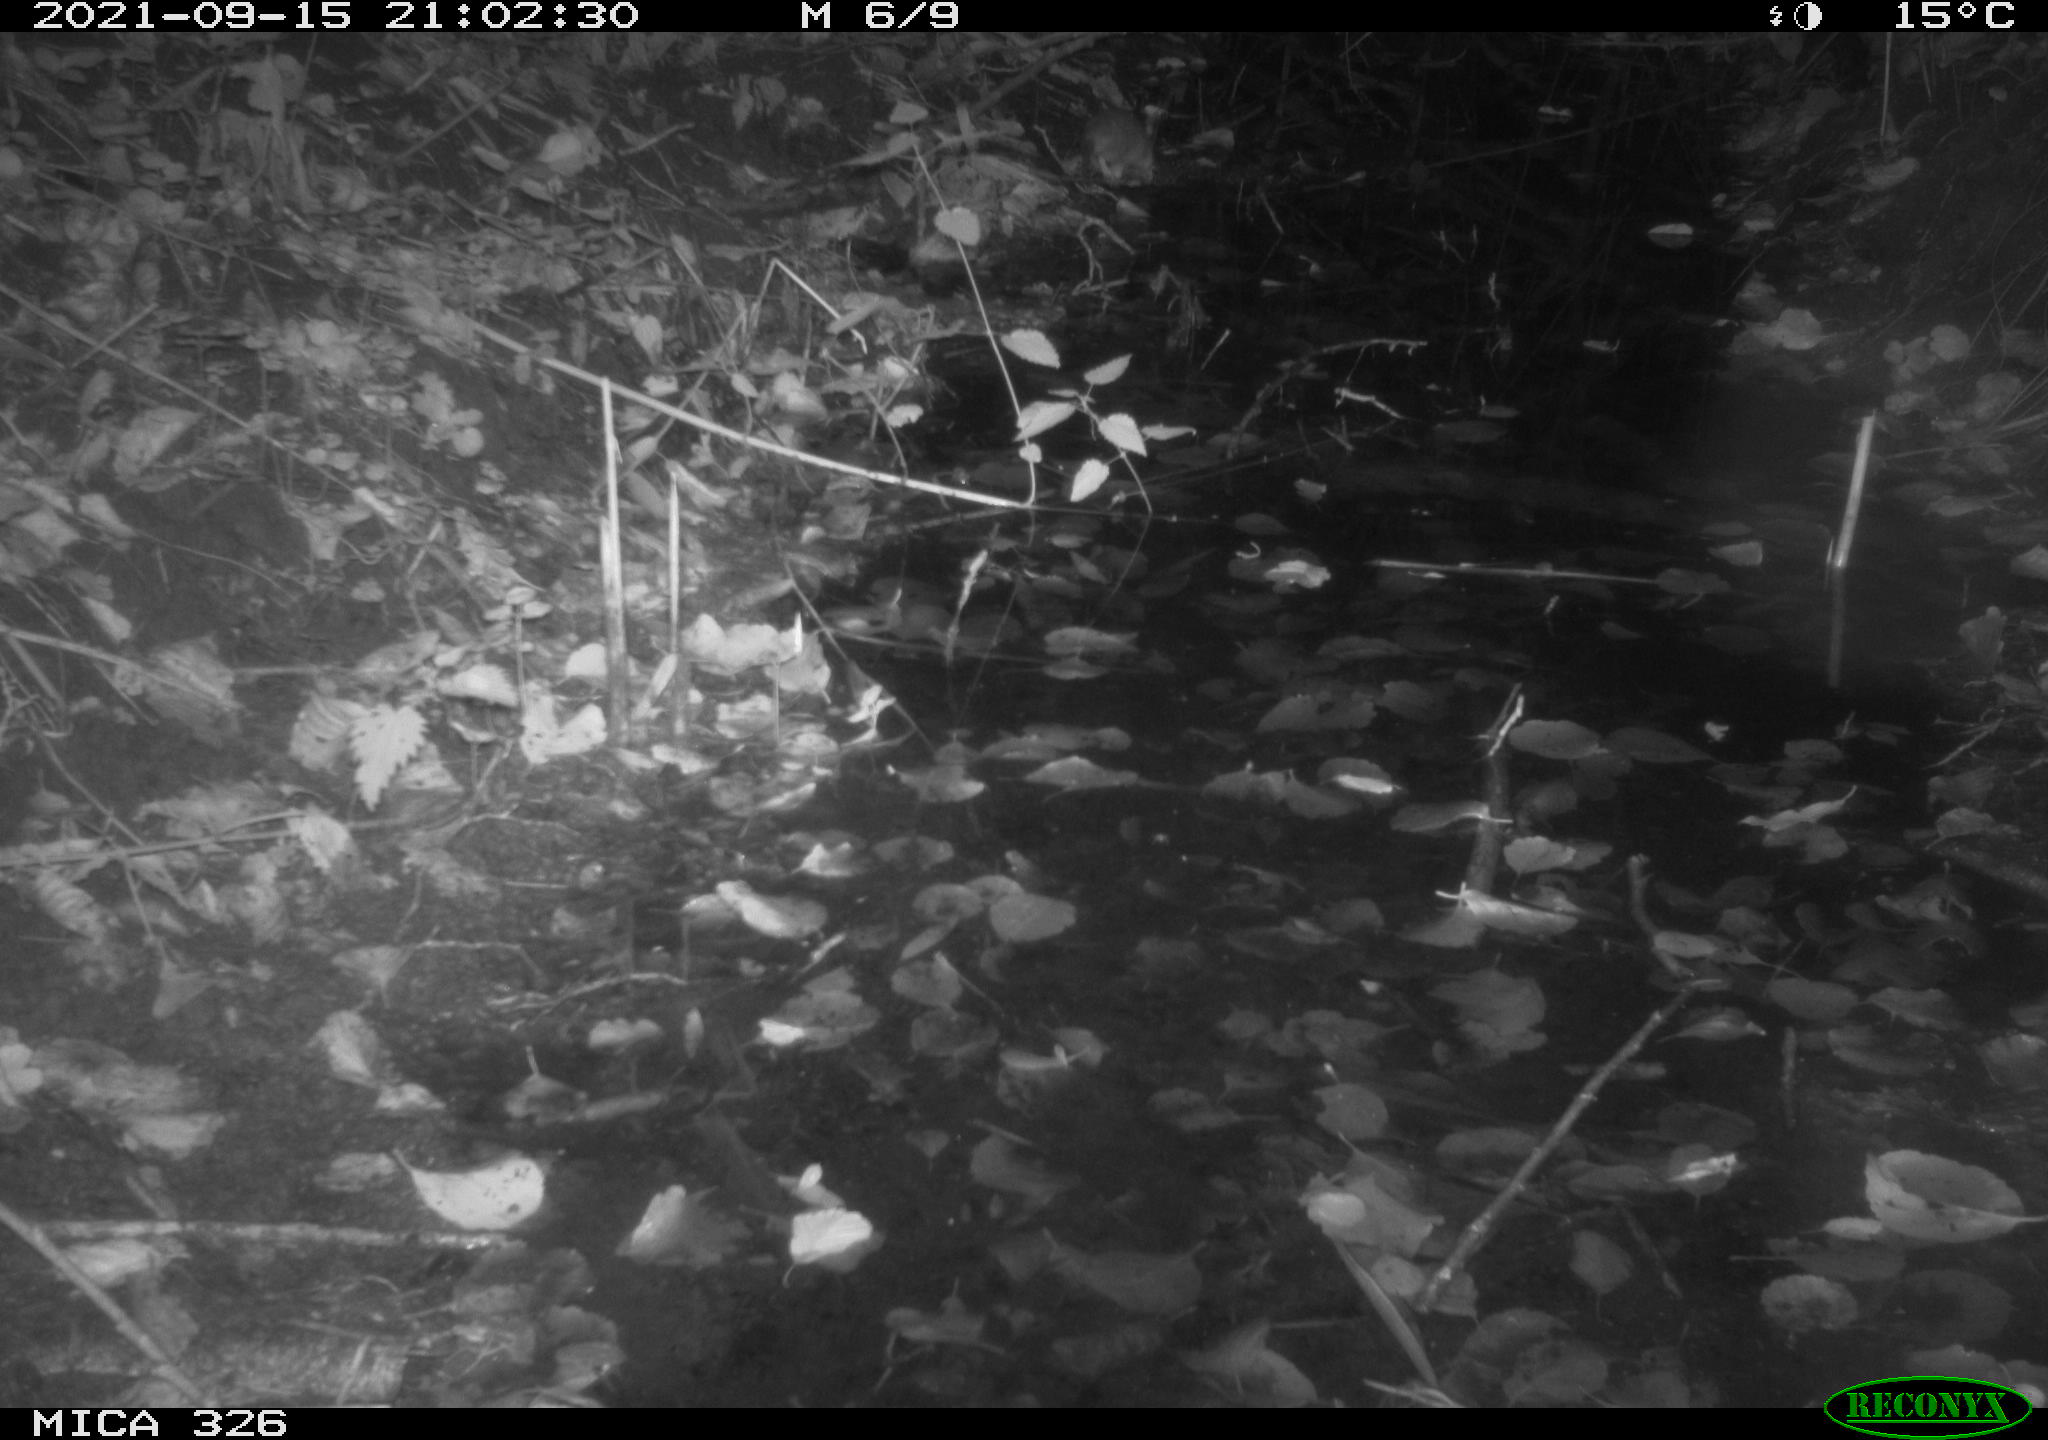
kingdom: Animalia
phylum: Chordata
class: Mammalia
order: Rodentia
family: Muridae
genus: Rattus
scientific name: Rattus norvegicus
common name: Brown rat
